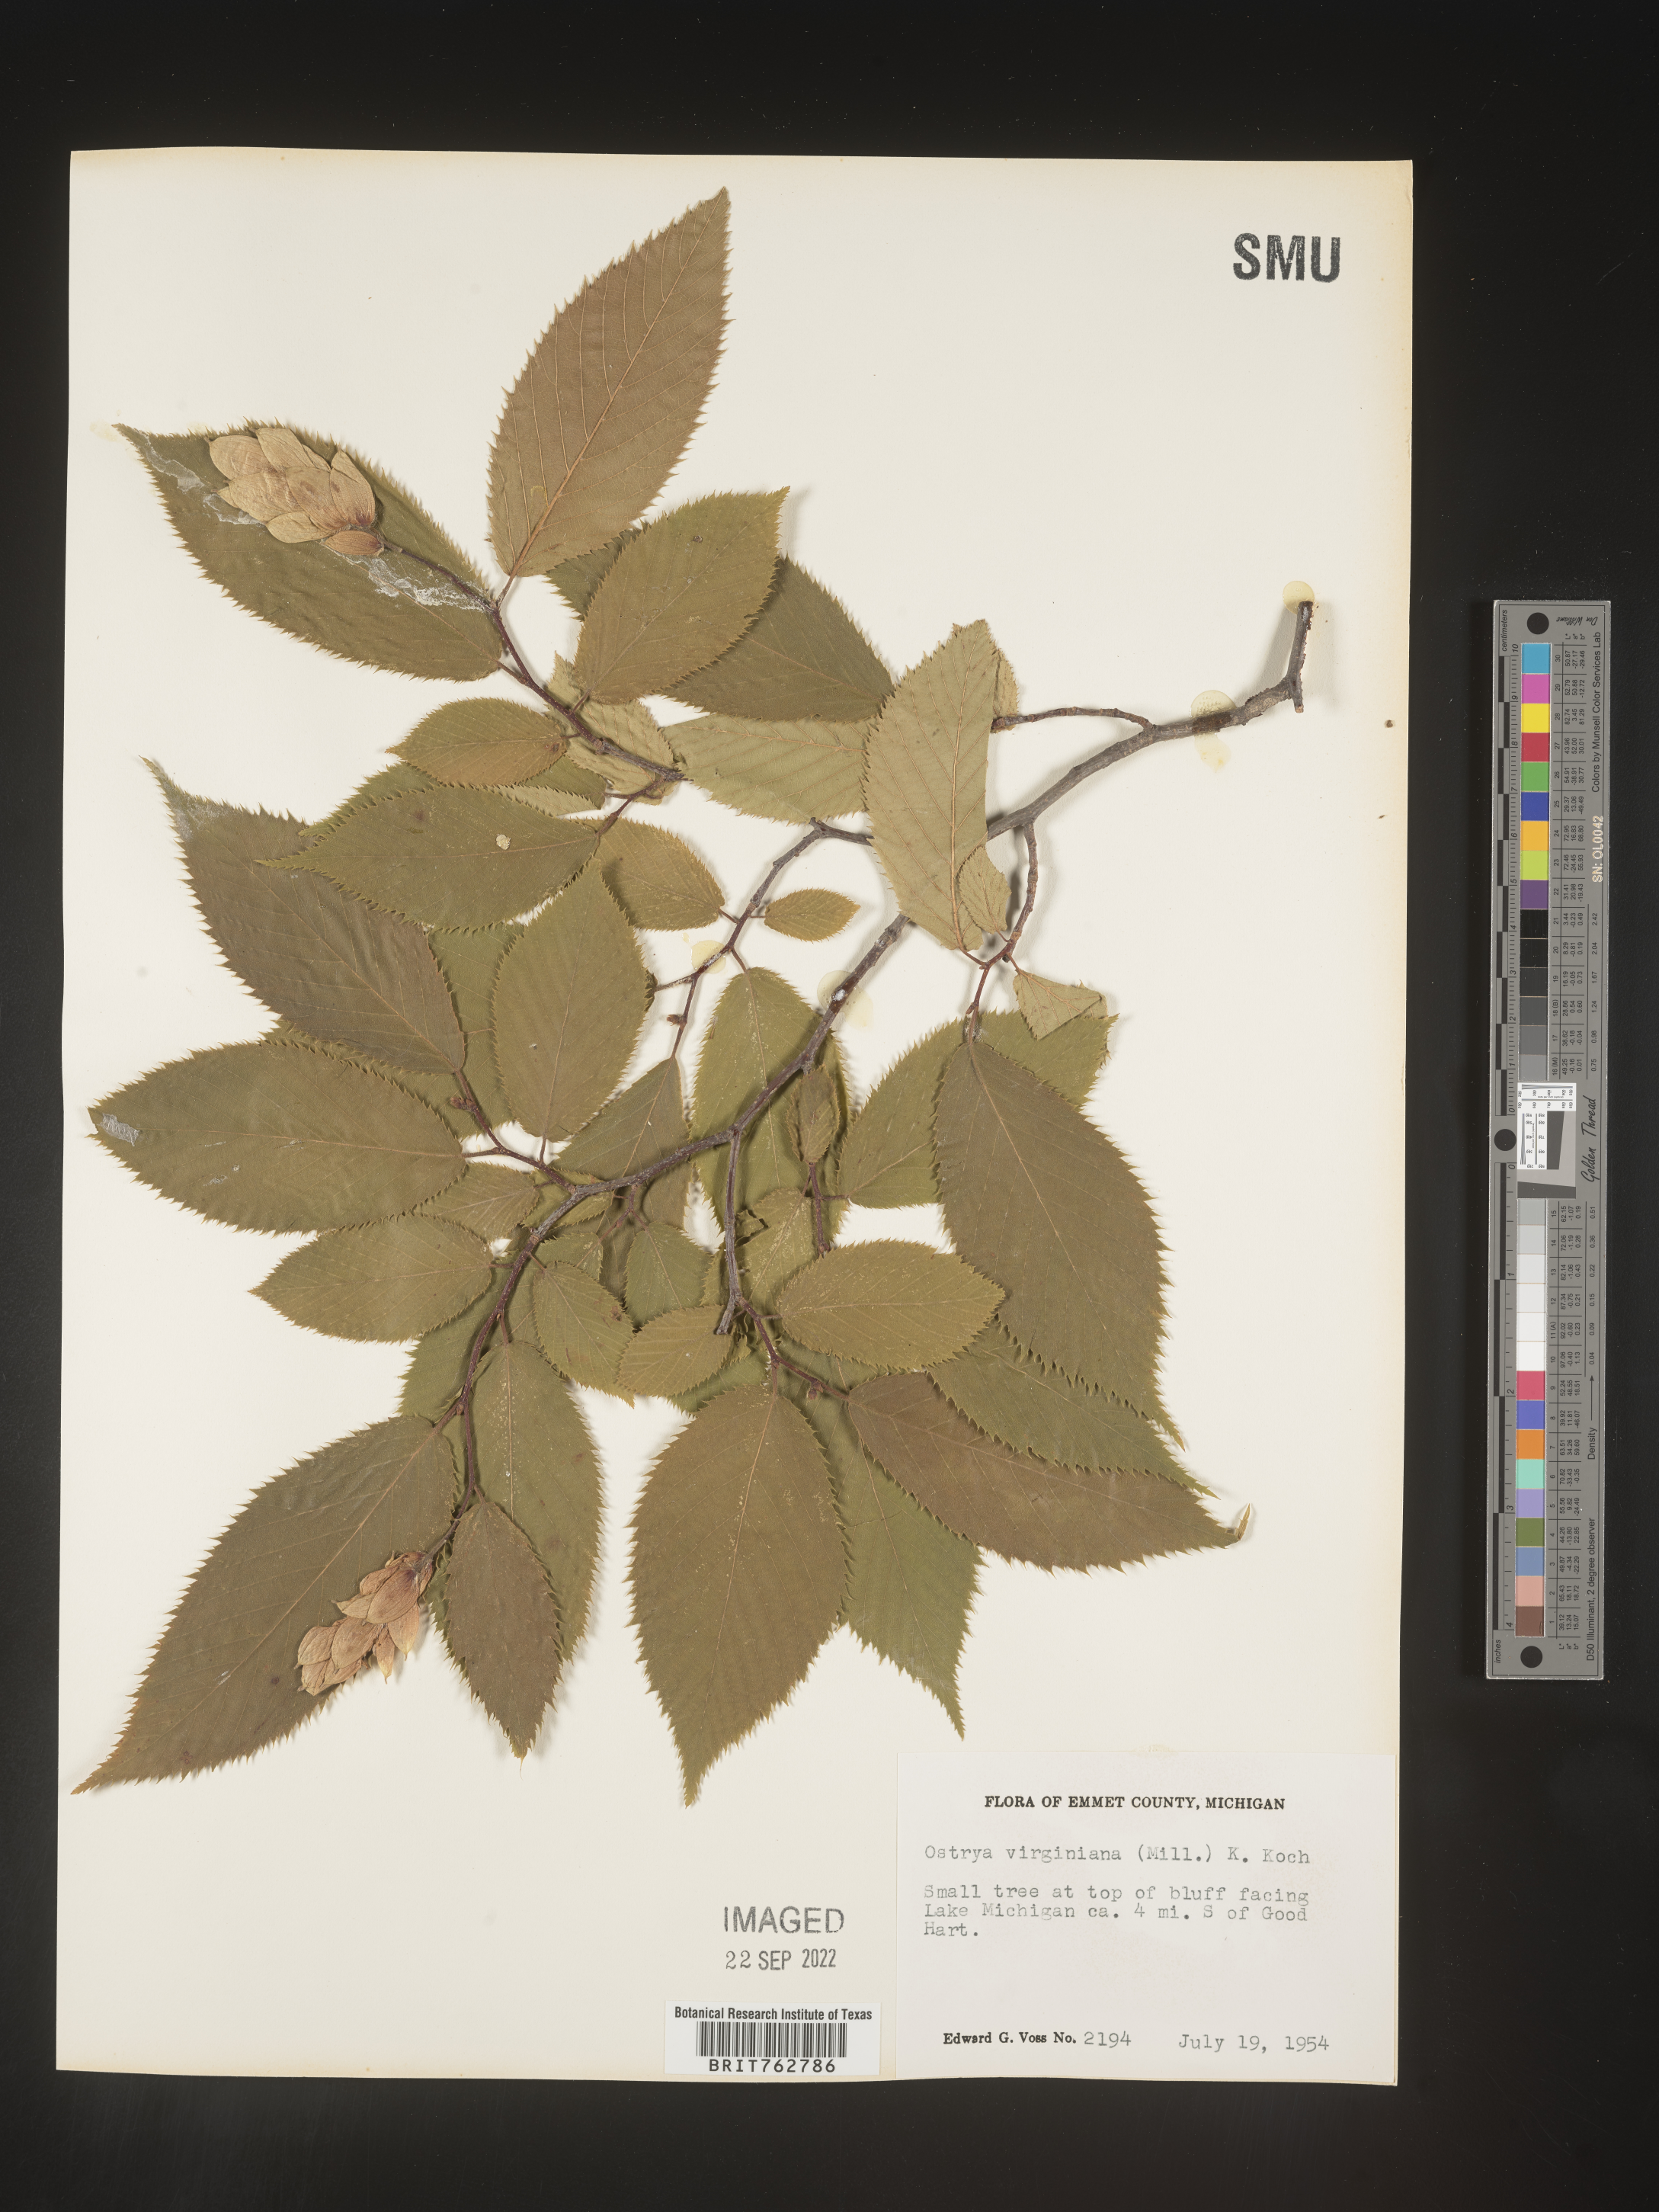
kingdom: Plantae
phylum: Tracheophyta
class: Magnoliopsida
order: Fagales
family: Betulaceae
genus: Ostrya
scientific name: Ostrya virginiana
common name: Ironwood
